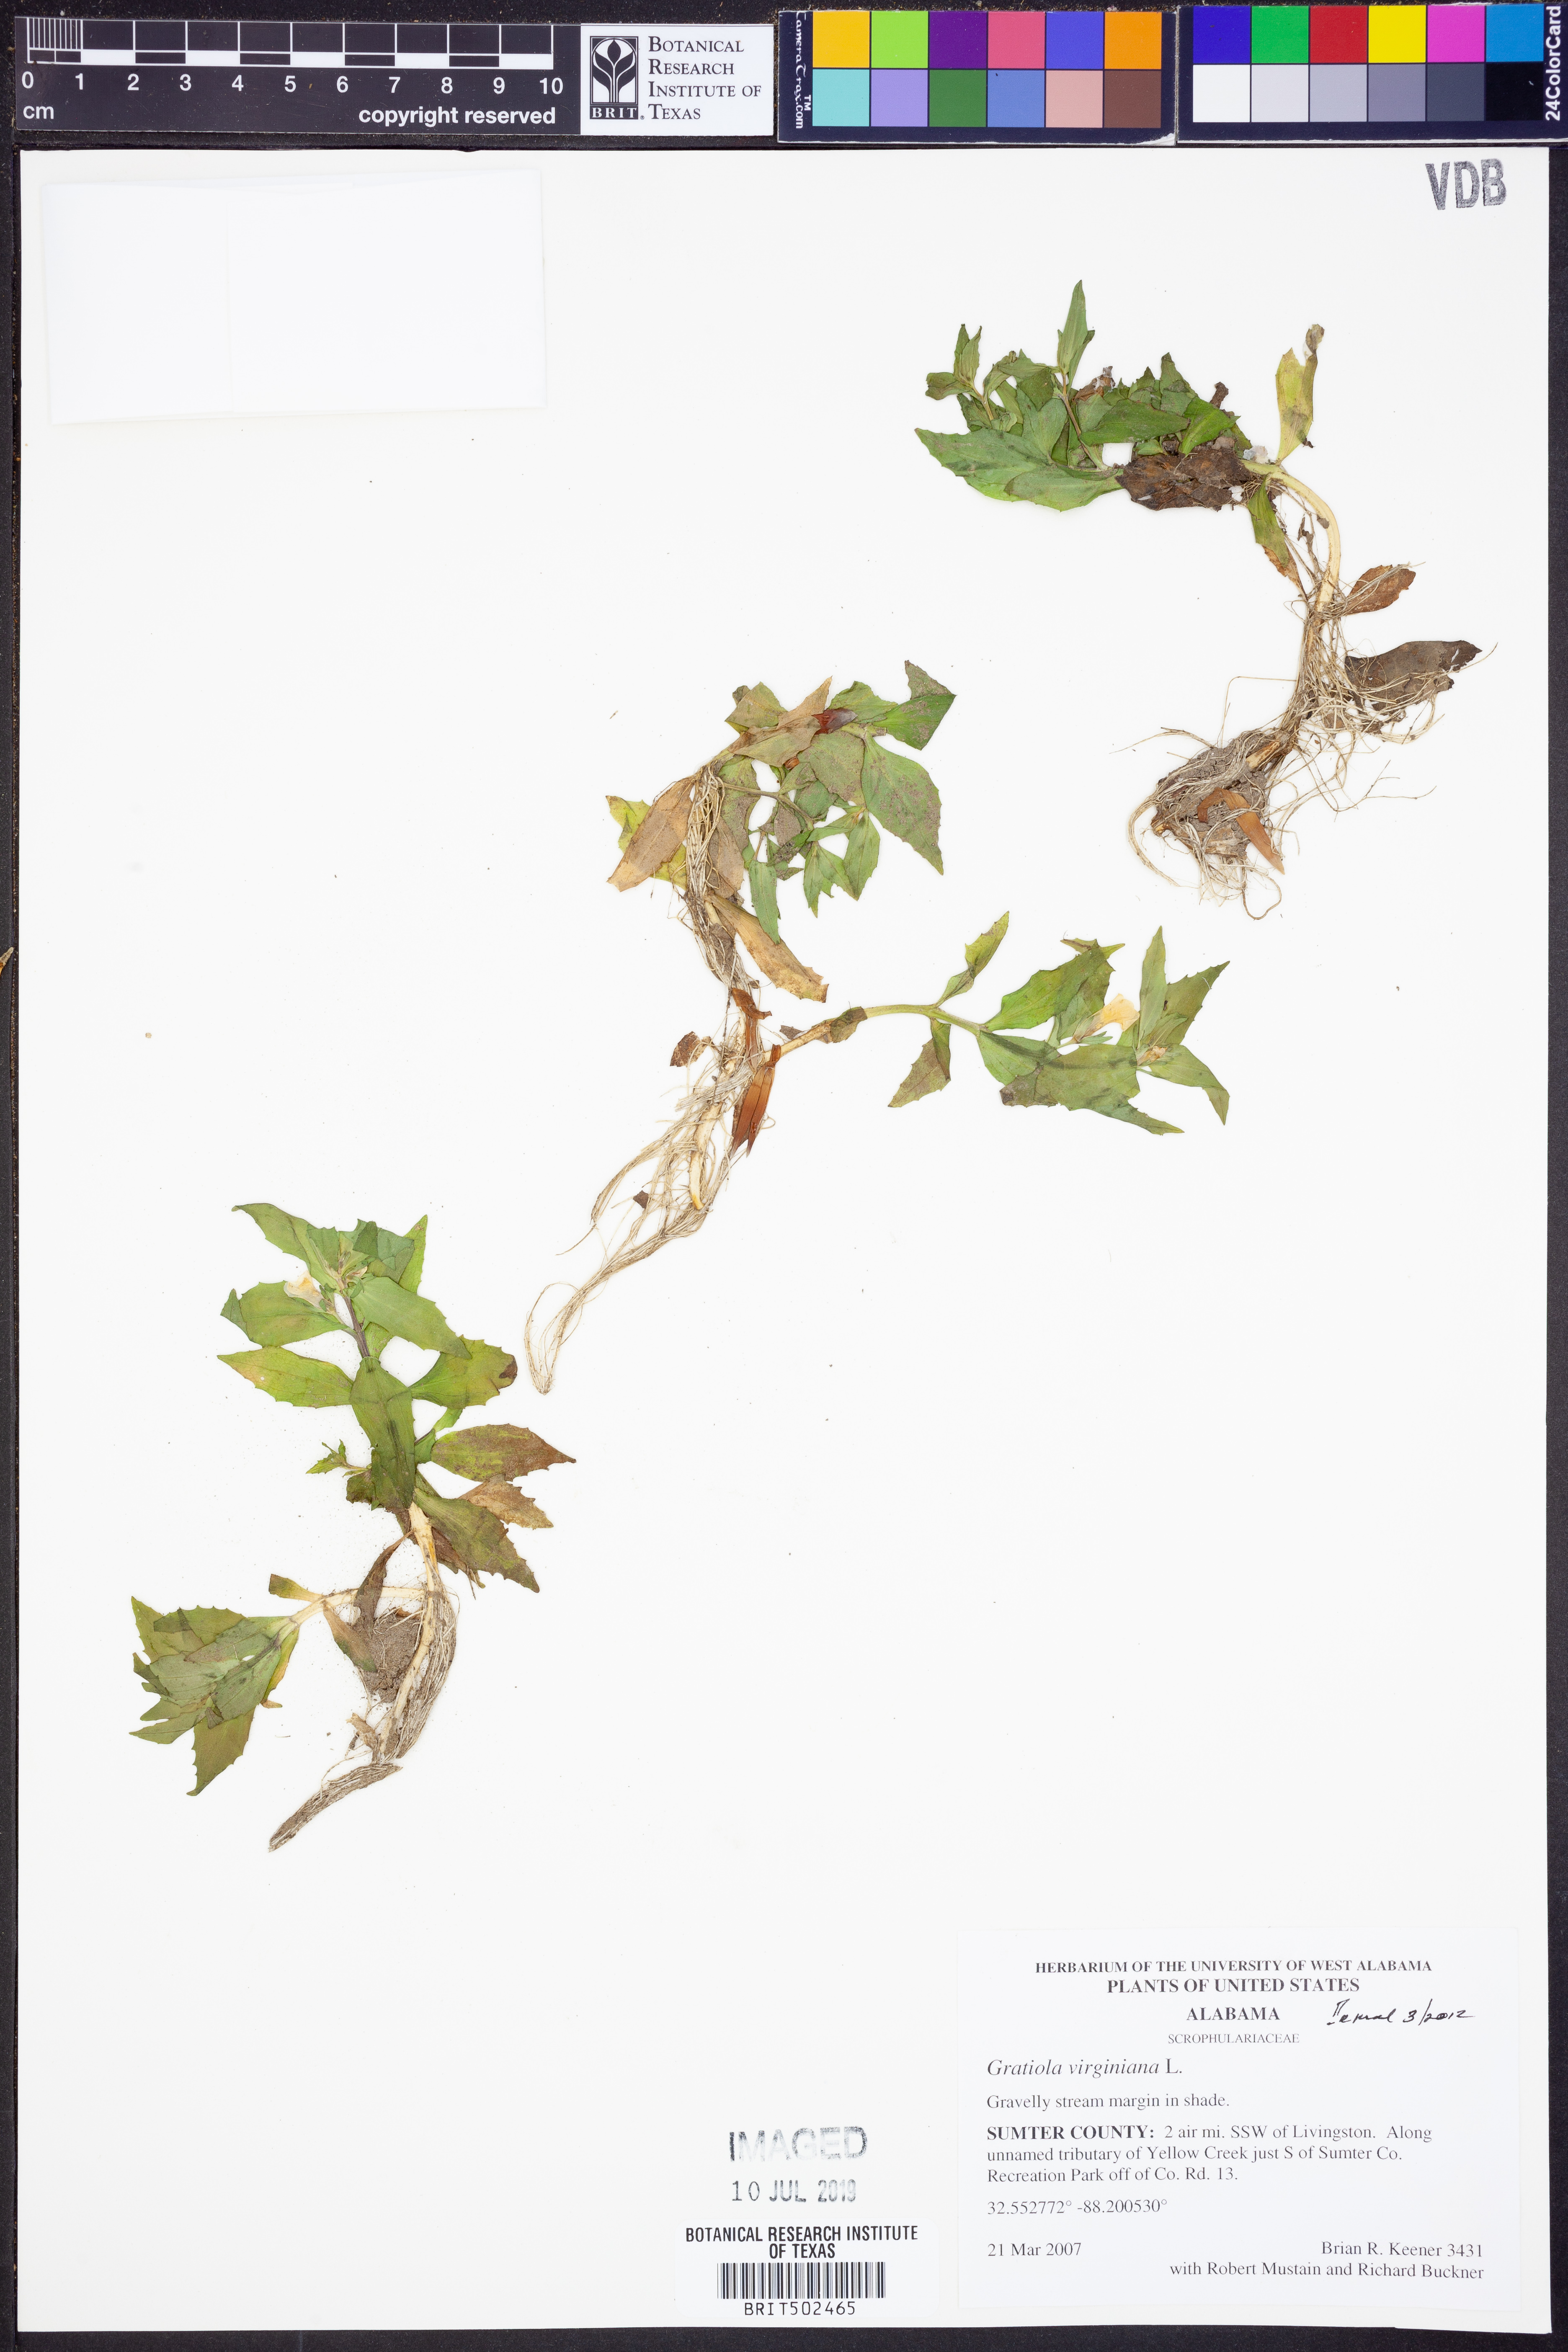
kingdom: Plantae
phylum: Tracheophyta
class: Magnoliopsida
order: Lamiales
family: Plantaginaceae
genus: Gratiola
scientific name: Gratiola virginiana
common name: Roundfruit hedgehyssop
